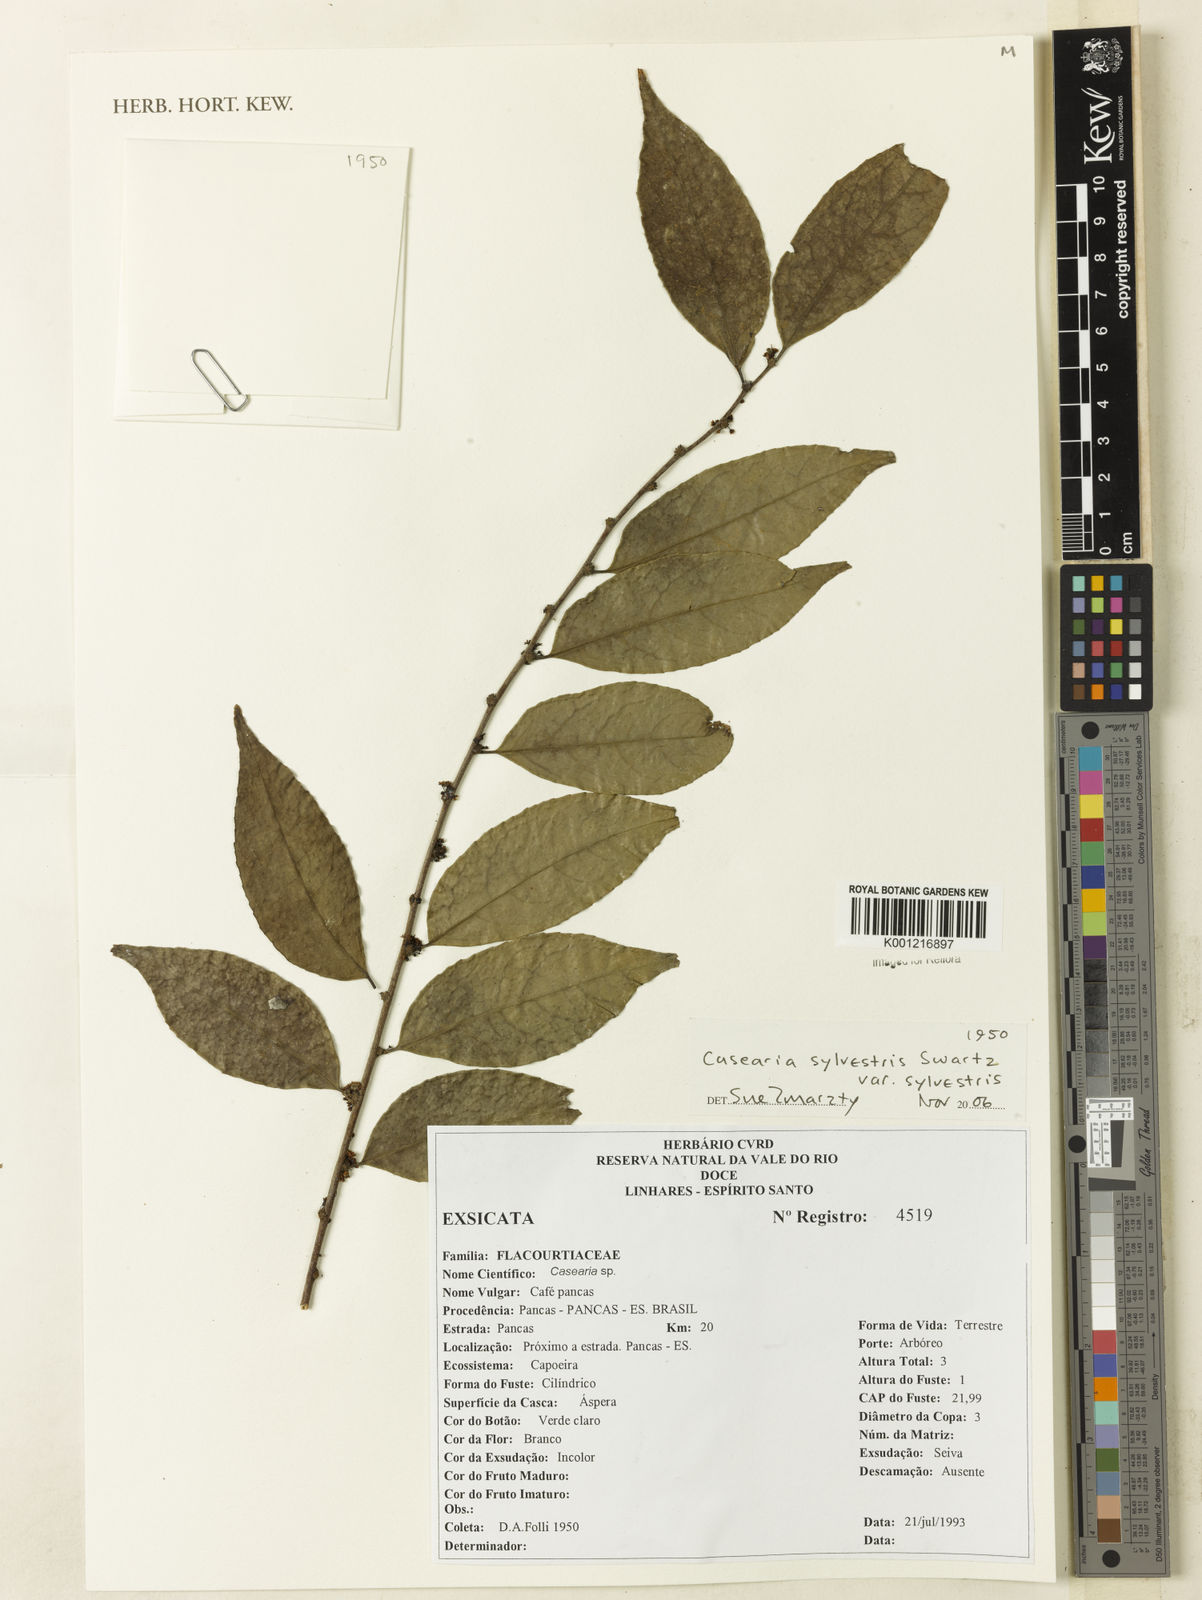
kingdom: Plantae
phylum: Tracheophyta
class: Magnoliopsida
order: Malpighiales
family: Salicaceae
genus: Casearia
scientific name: Casearia sylvestris
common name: Wild sage
